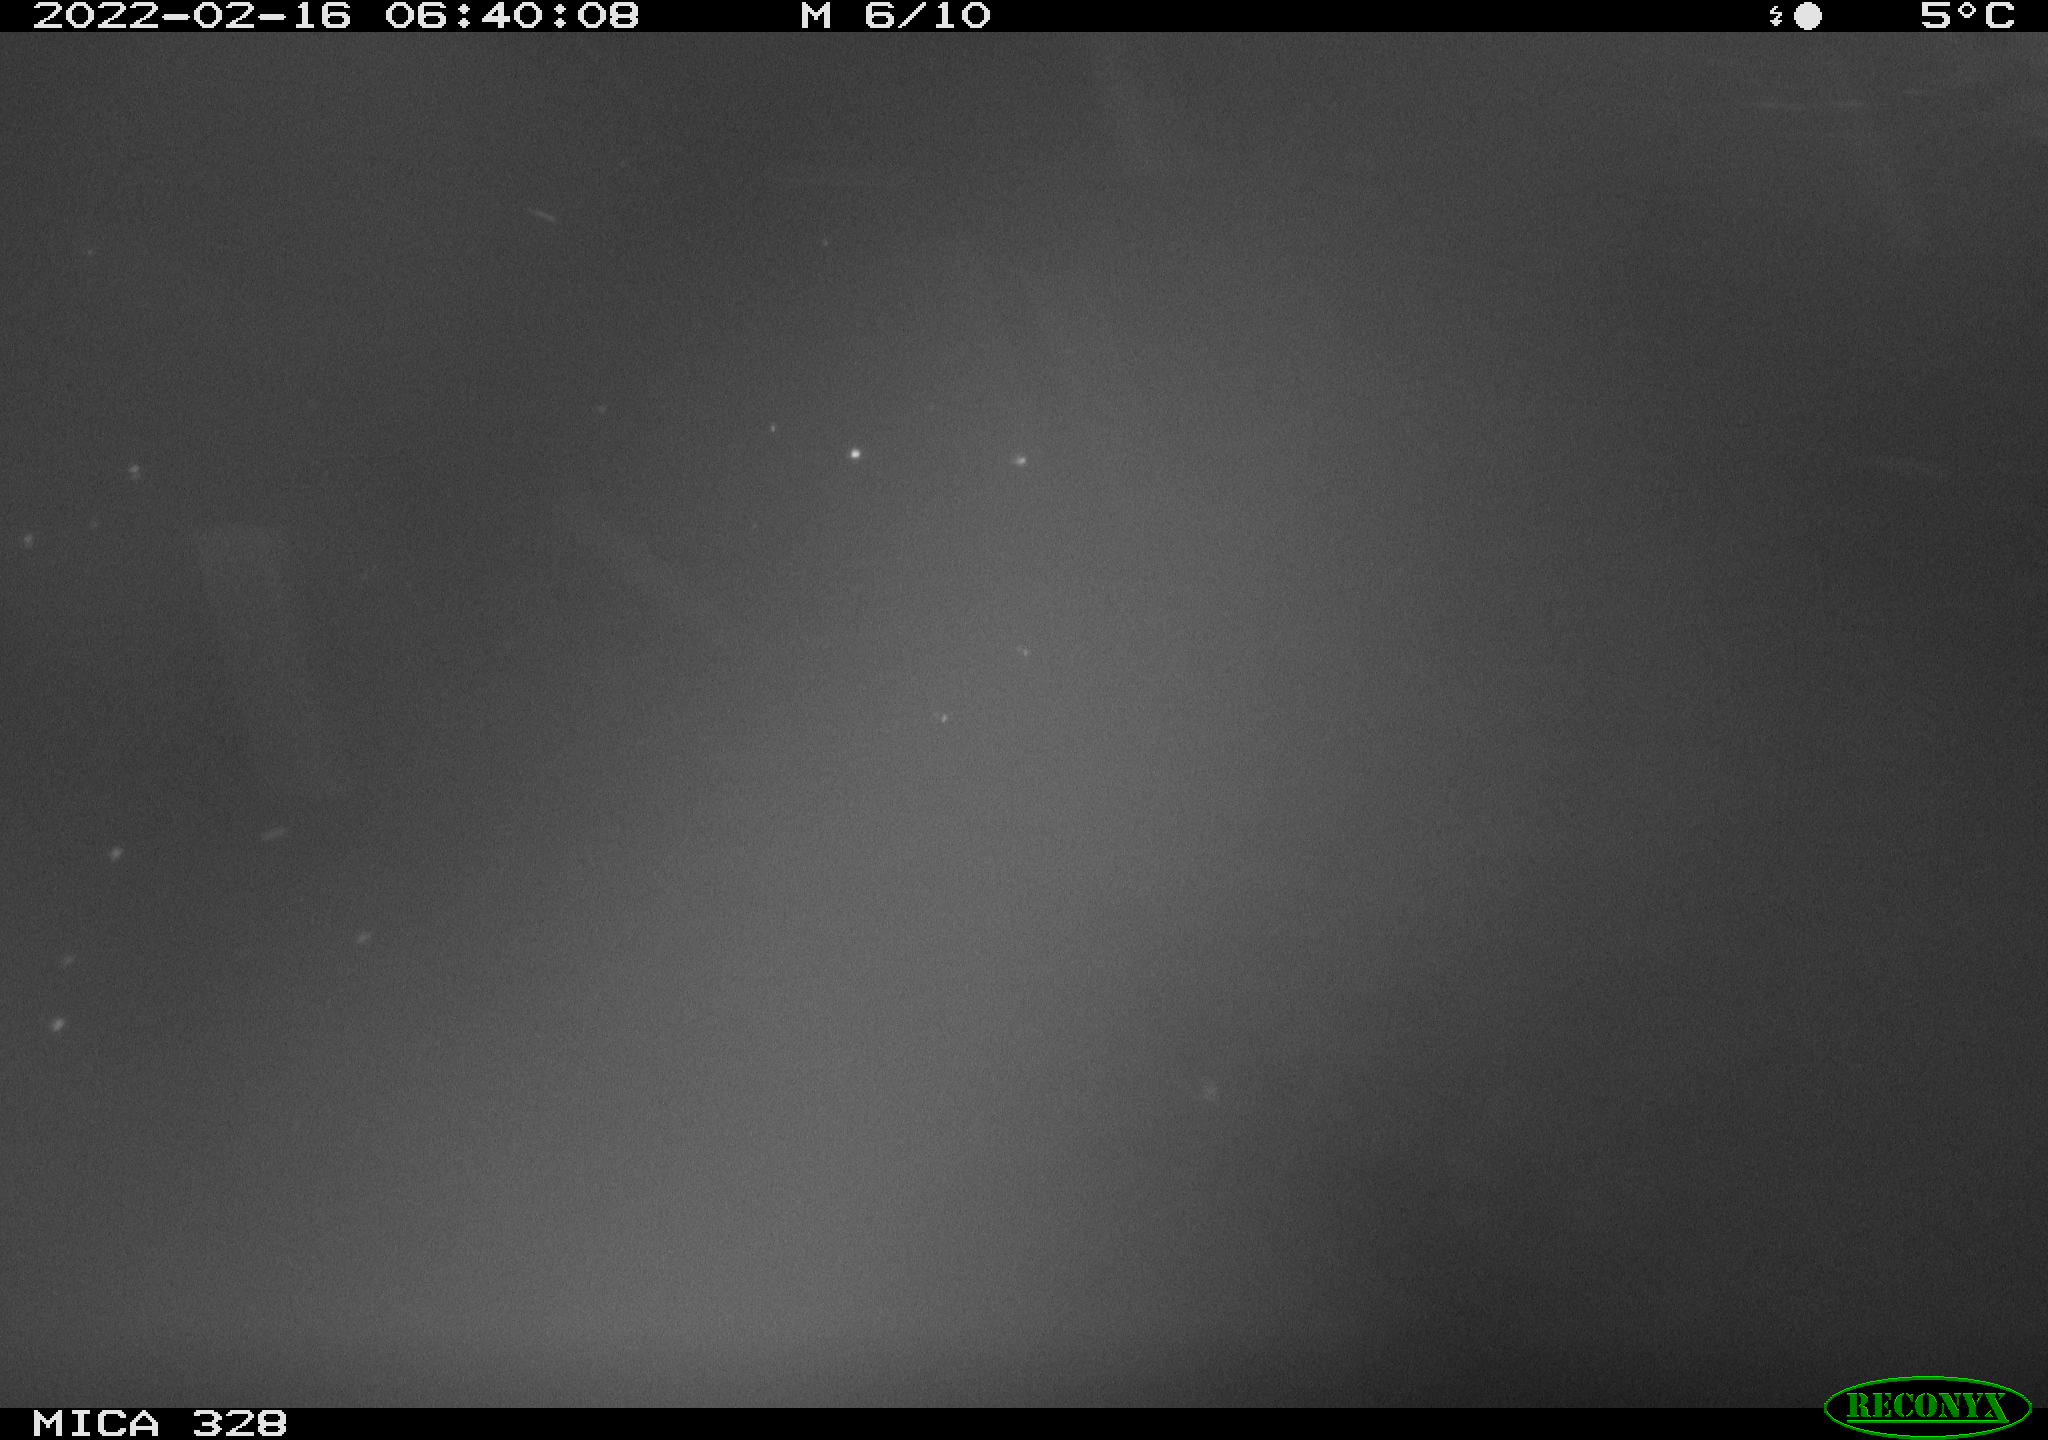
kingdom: Animalia
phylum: Chordata
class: Mammalia
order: Rodentia
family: Cricetidae
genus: Ondatra
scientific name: Ondatra zibethicus
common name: Muskrat
